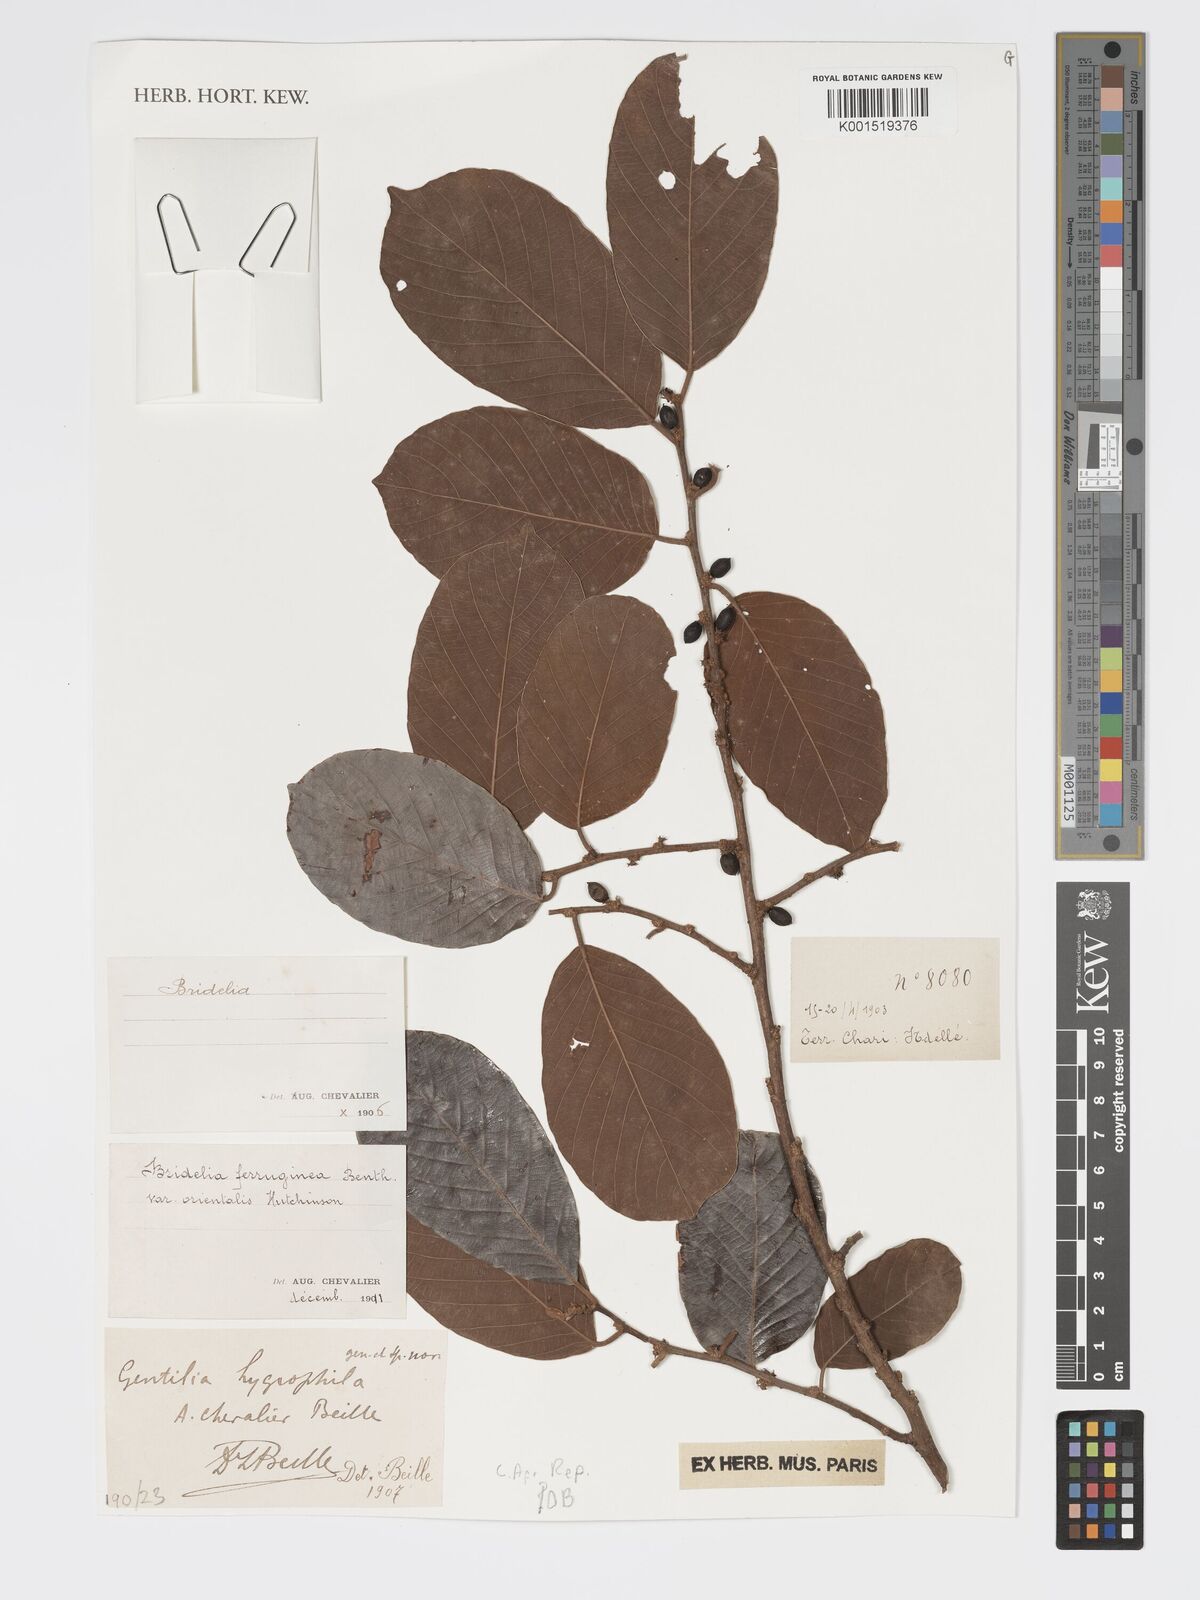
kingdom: Plantae
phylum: Tracheophyta
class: Magnoliopsida
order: Malpighiales
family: Phyllanthaceae
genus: Bridelia
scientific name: Bridelia ferruginea
